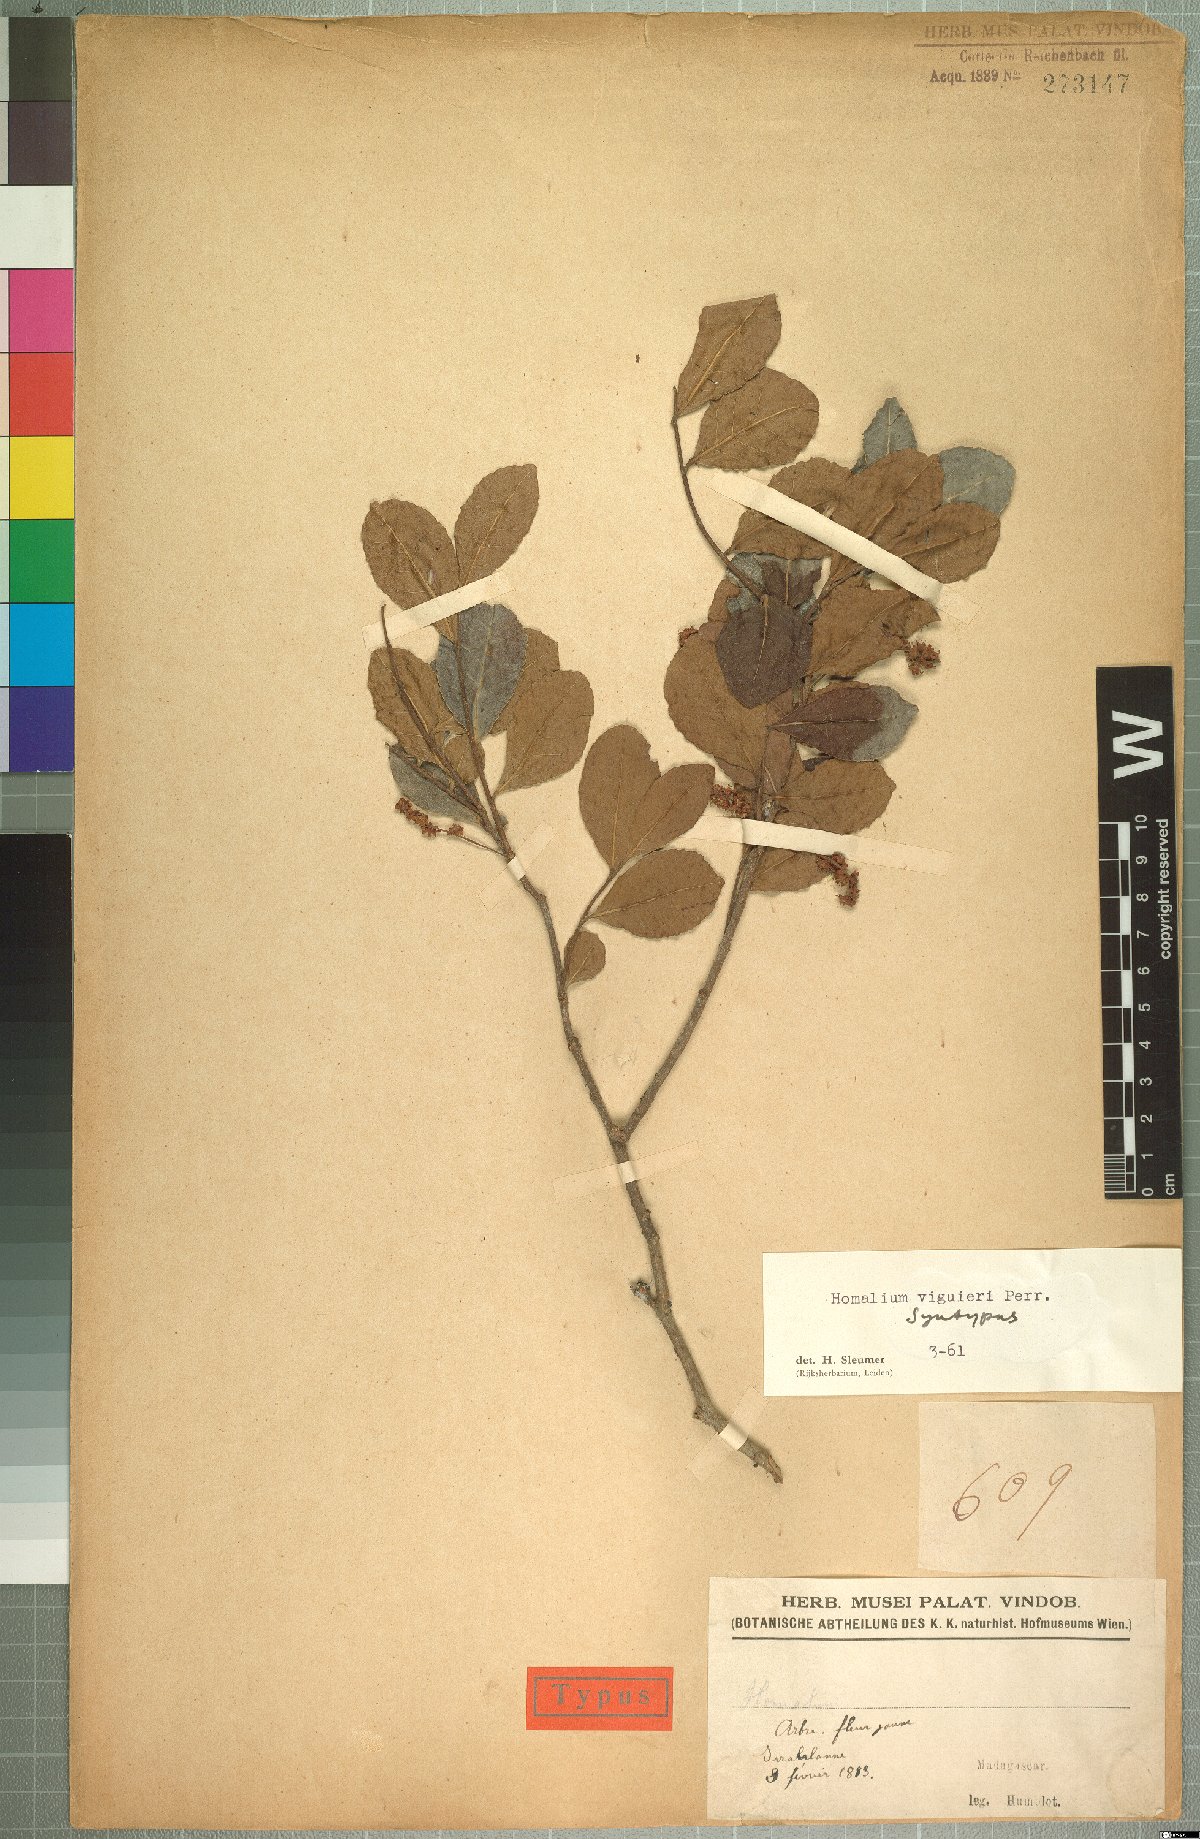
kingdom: Plantae
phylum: Tracheophyta
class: Magnoliopsida
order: Malpighiales
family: Salicaceae
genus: Homalium
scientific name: Homalium viguieri
